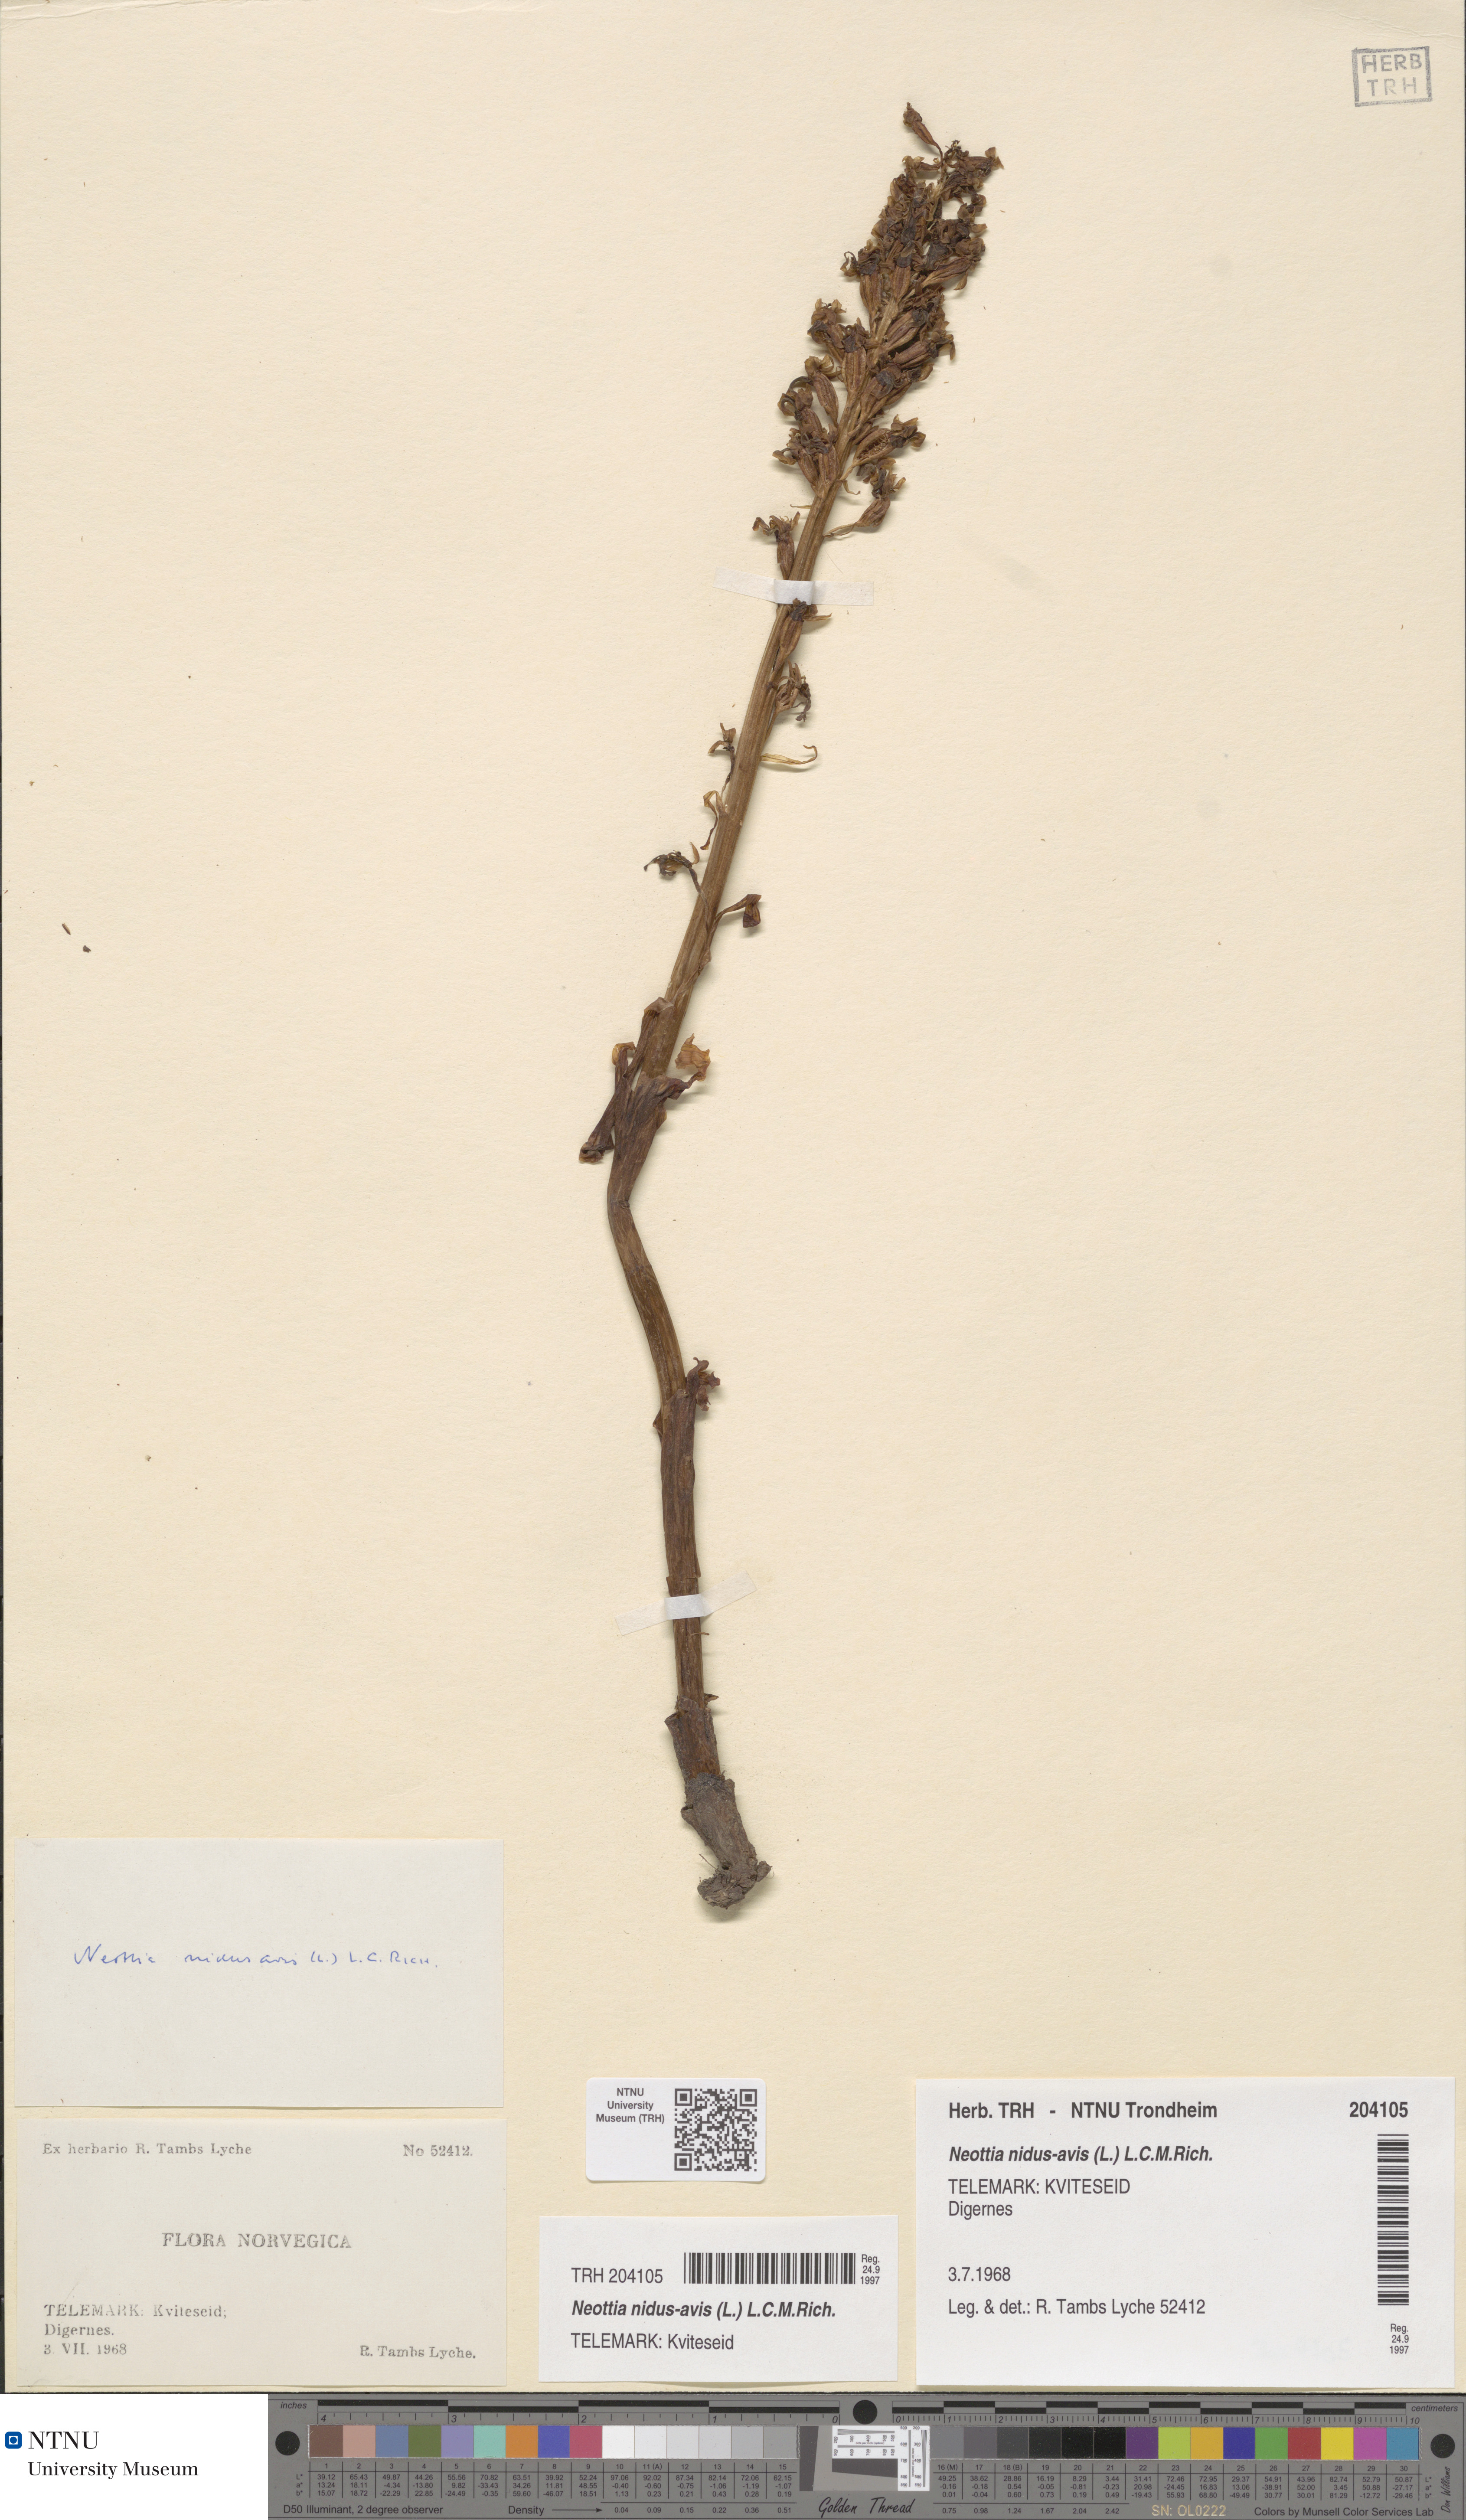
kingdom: Plantae
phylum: Tracheophyta
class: Liliopsida
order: Asparagales
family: Orchidaceae
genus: Neottia
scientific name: Neottia nidus-avis
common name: Bird's-nest orchid
